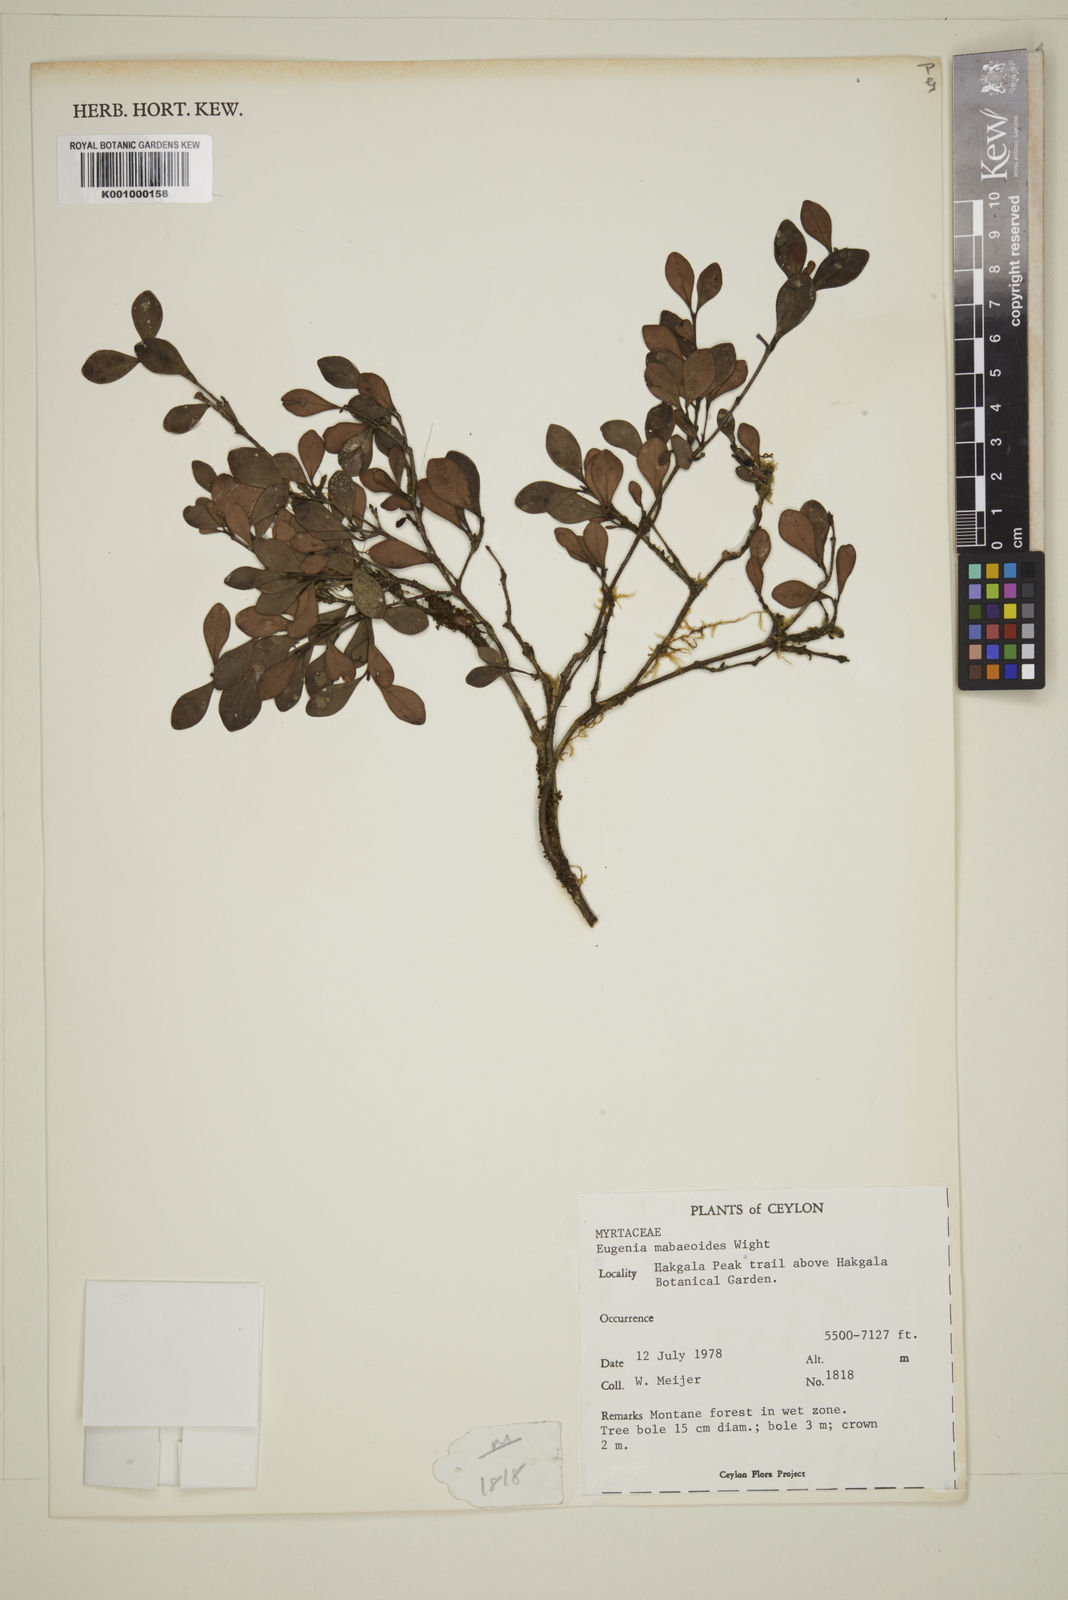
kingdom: Plantae
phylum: Tracheophyta
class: Magnoliopsida
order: Myrtales
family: Myrtaceae
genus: Eugenia
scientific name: Eugenia mabaeoides
